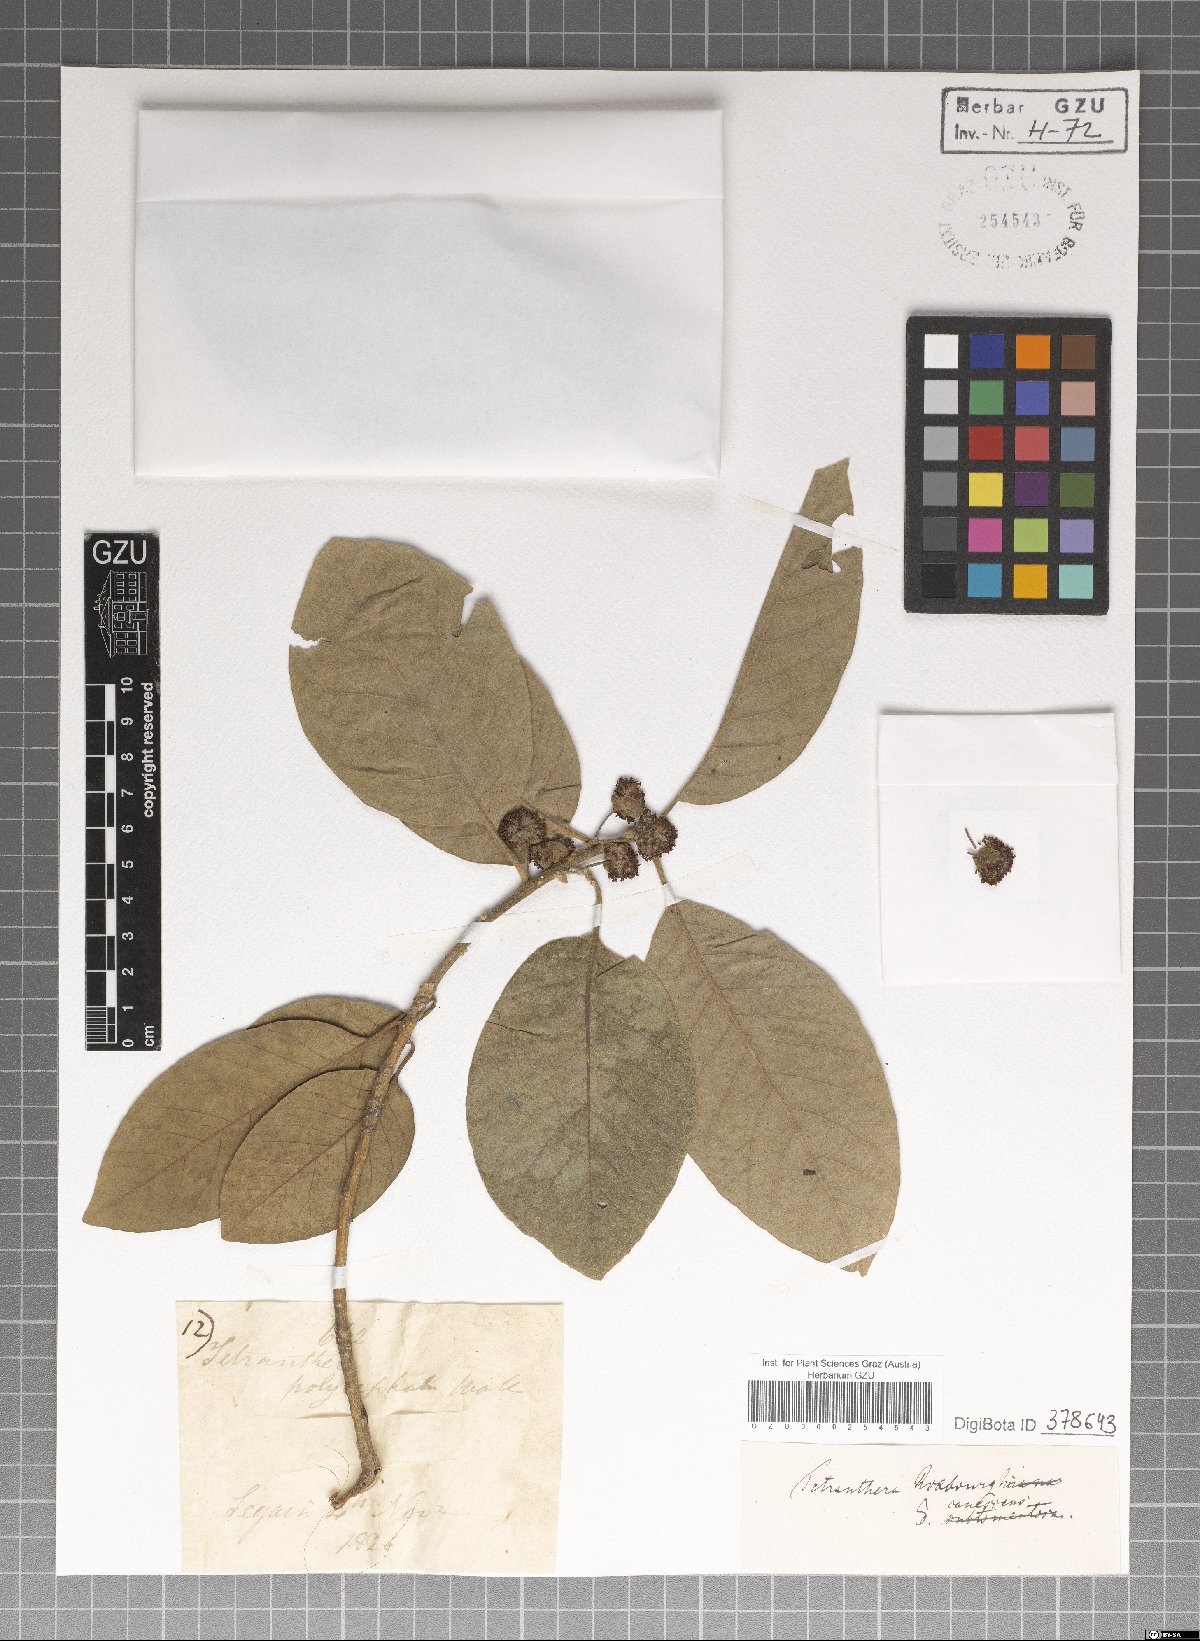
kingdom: Plantae
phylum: Tracheophyta
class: Magnoliopsida
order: Laurales
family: Lauraceae
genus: Litsea
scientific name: Litsea glutinosa
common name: Indian-laurel
